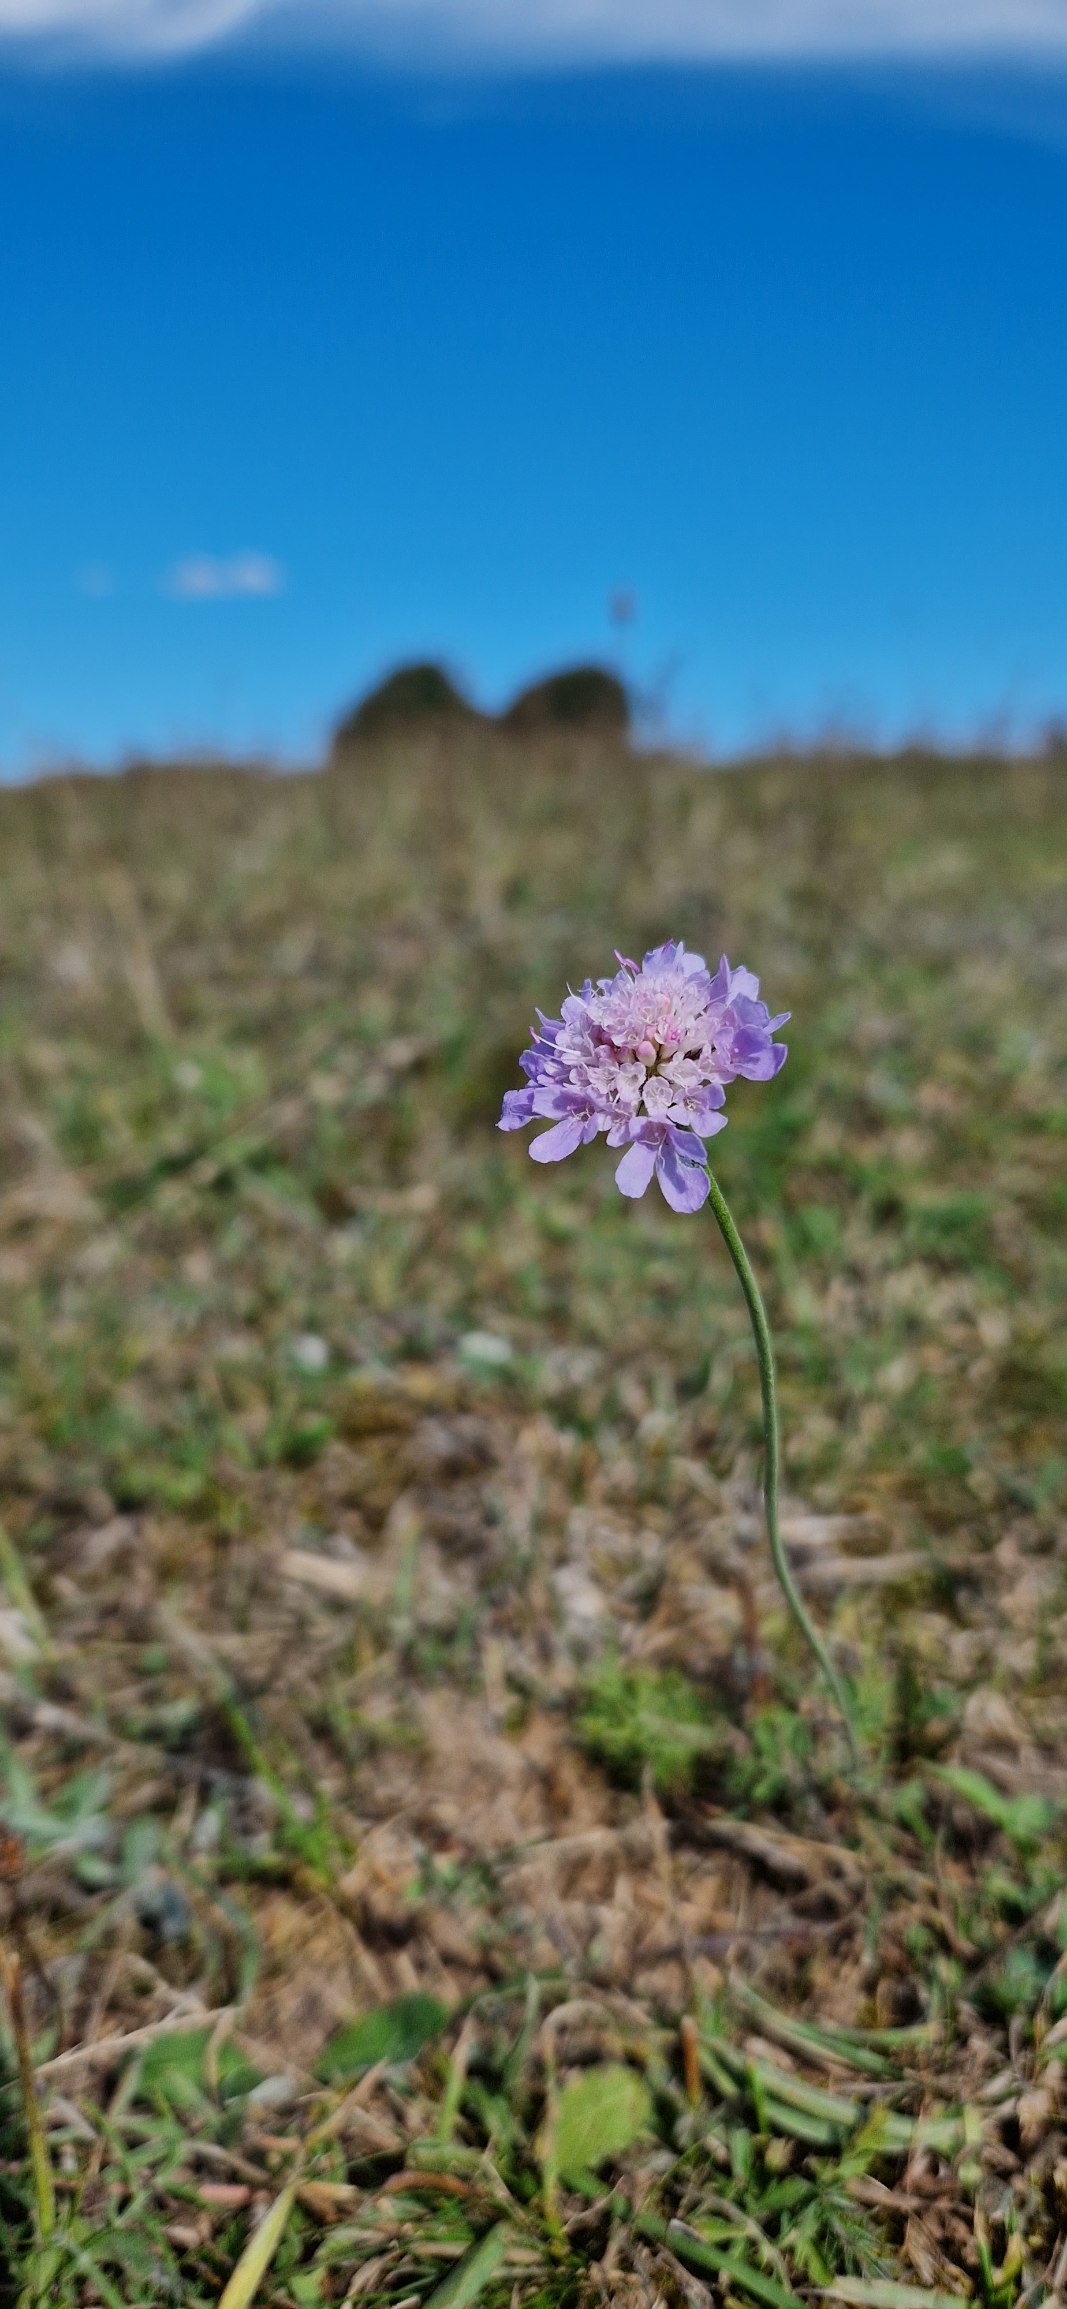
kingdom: Plantae
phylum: Tracheophyta
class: Magnoliopsida
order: Dipsacales
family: Caprifoliaceae
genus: Scabiosa
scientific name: Scabiosa columbaria
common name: Due-skabiose
